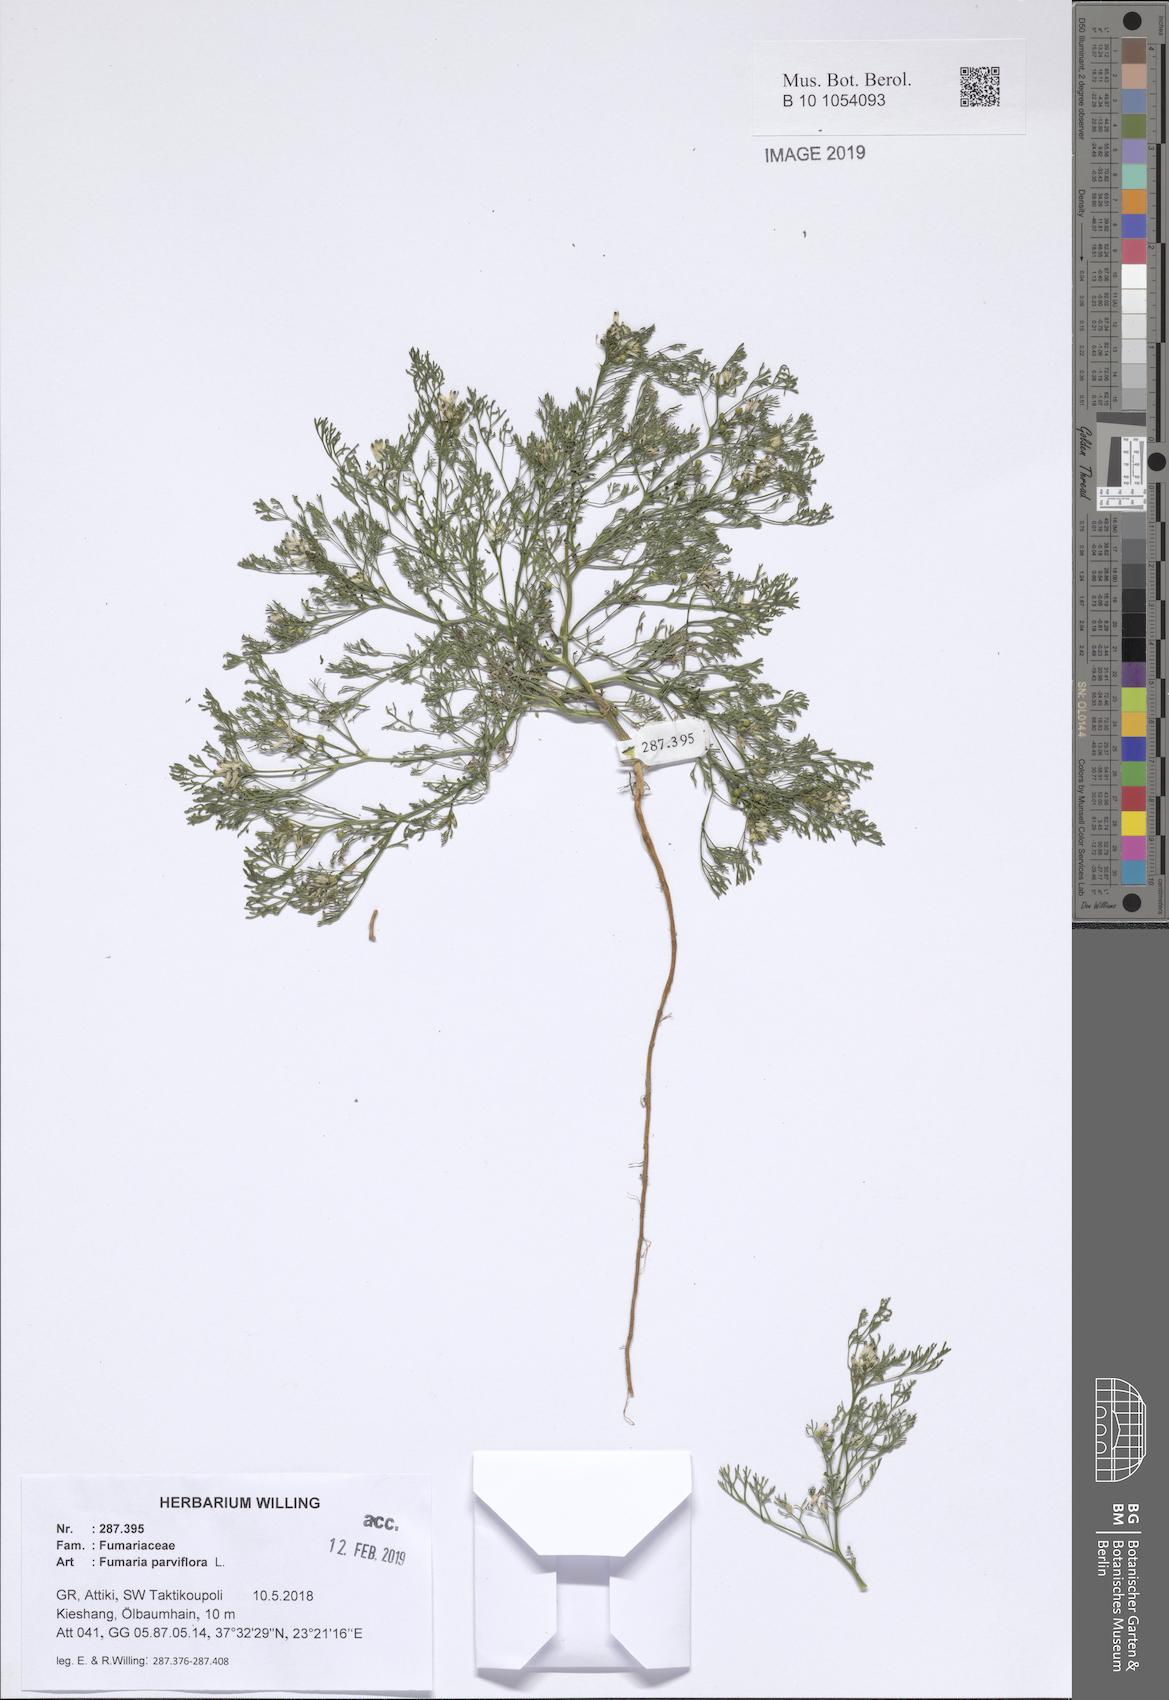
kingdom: Plantae
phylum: Tracheophyta
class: Magnoliopsida
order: Ranunculales
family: Papaveraceae
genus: Fumaria
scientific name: Fumaria parviflora
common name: Fine-leaved fumitory
